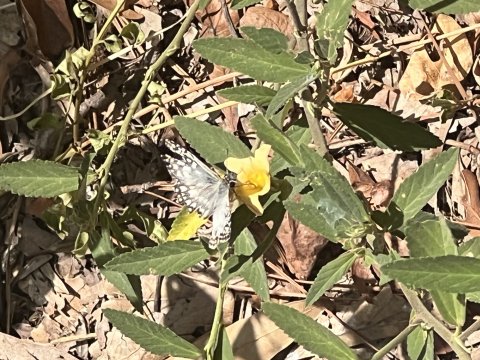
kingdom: Animalia
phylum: Arthropoda
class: Insecta
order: Lepidoptera
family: Hesperiidae
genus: Pyrgus
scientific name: Pyrgus oileus
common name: Tropical Checkered-Skipper
